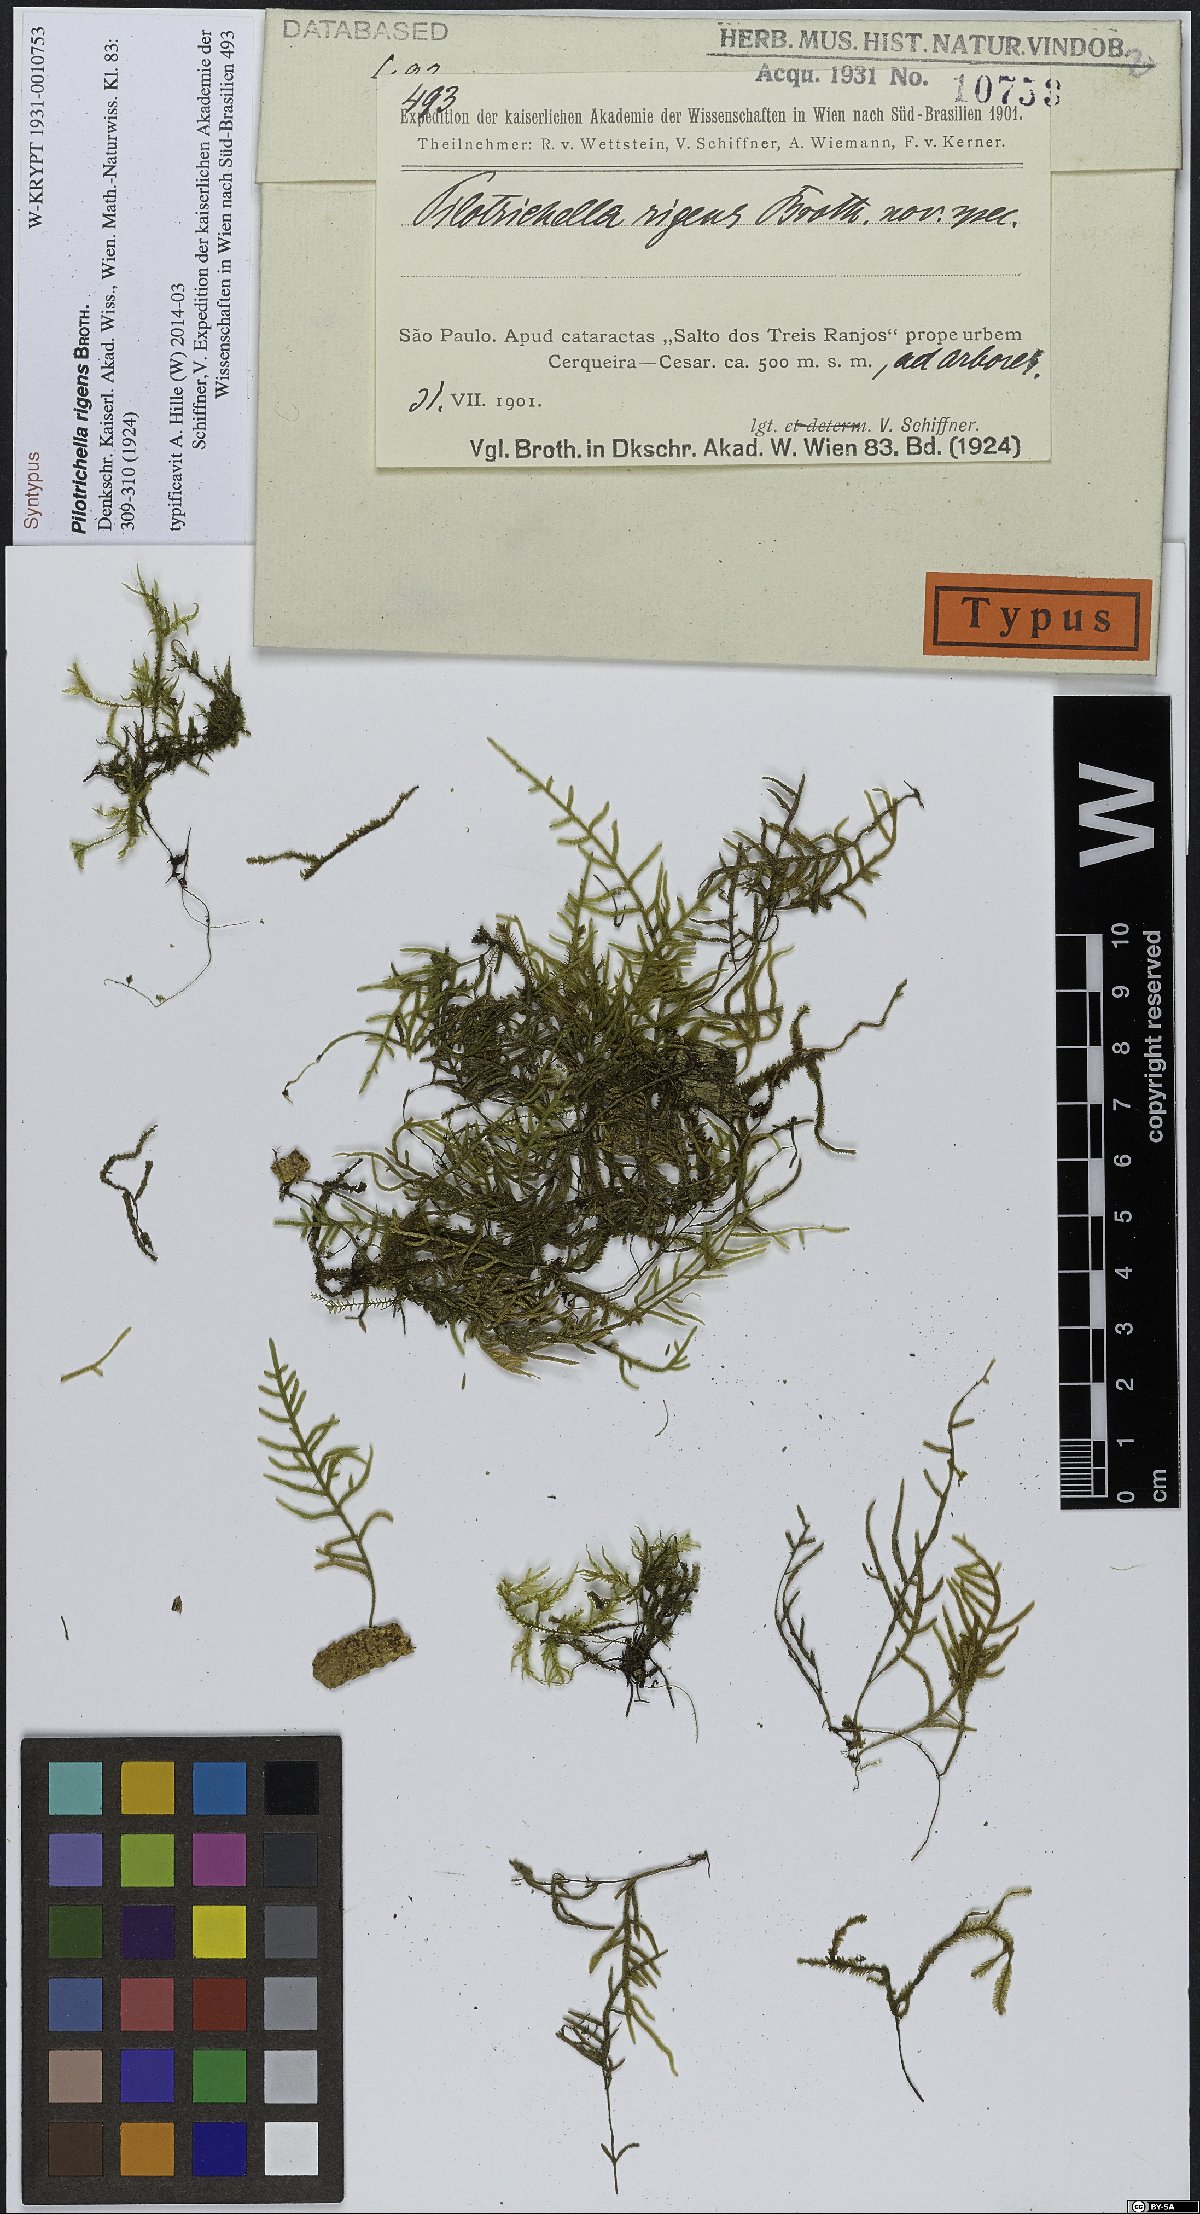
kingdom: Plantae
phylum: Bryophyta
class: Bryopsida
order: Hypnales
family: Orthostichellaceae
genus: Orthostichella
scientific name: Orthostichella pachygastrella
